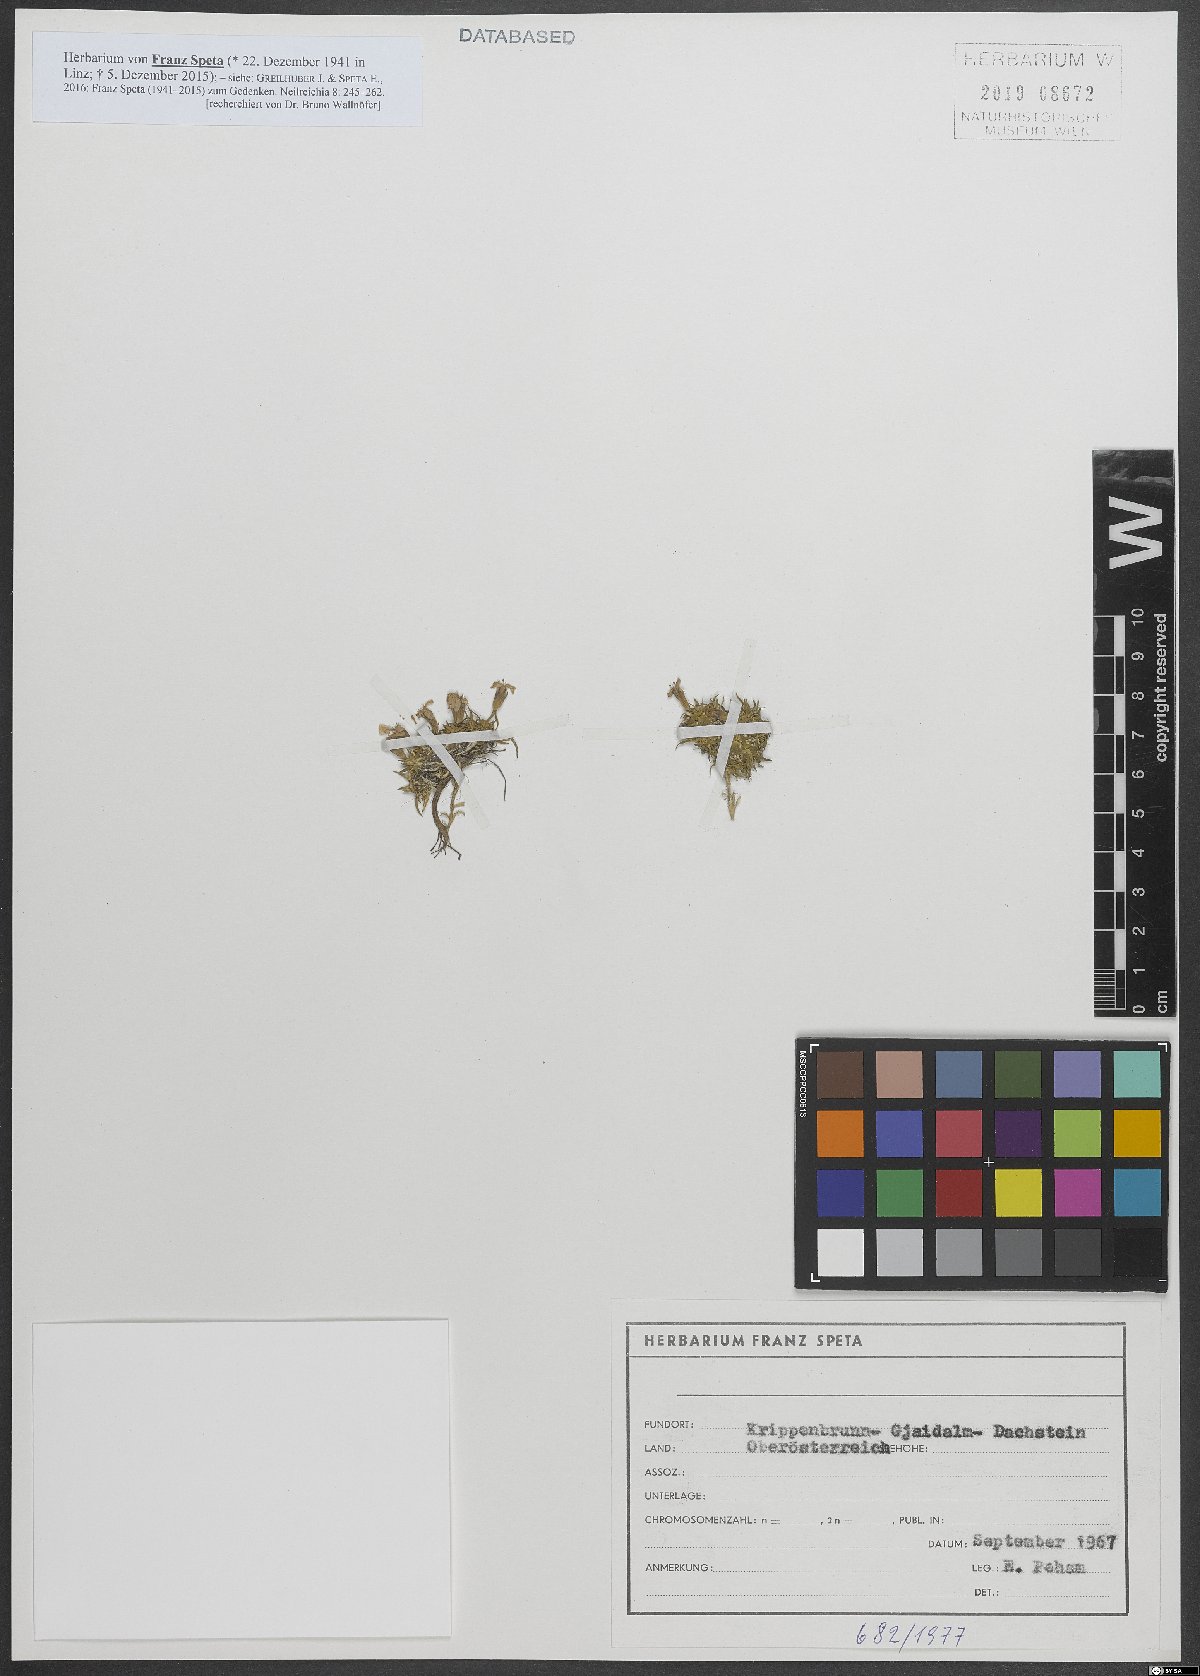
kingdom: Plantae
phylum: Tracheophyta
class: Magnoliopsida
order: Caryophyllales
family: Caryophyllaceae
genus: Silene
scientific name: Silene acaulis
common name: Moss campion
